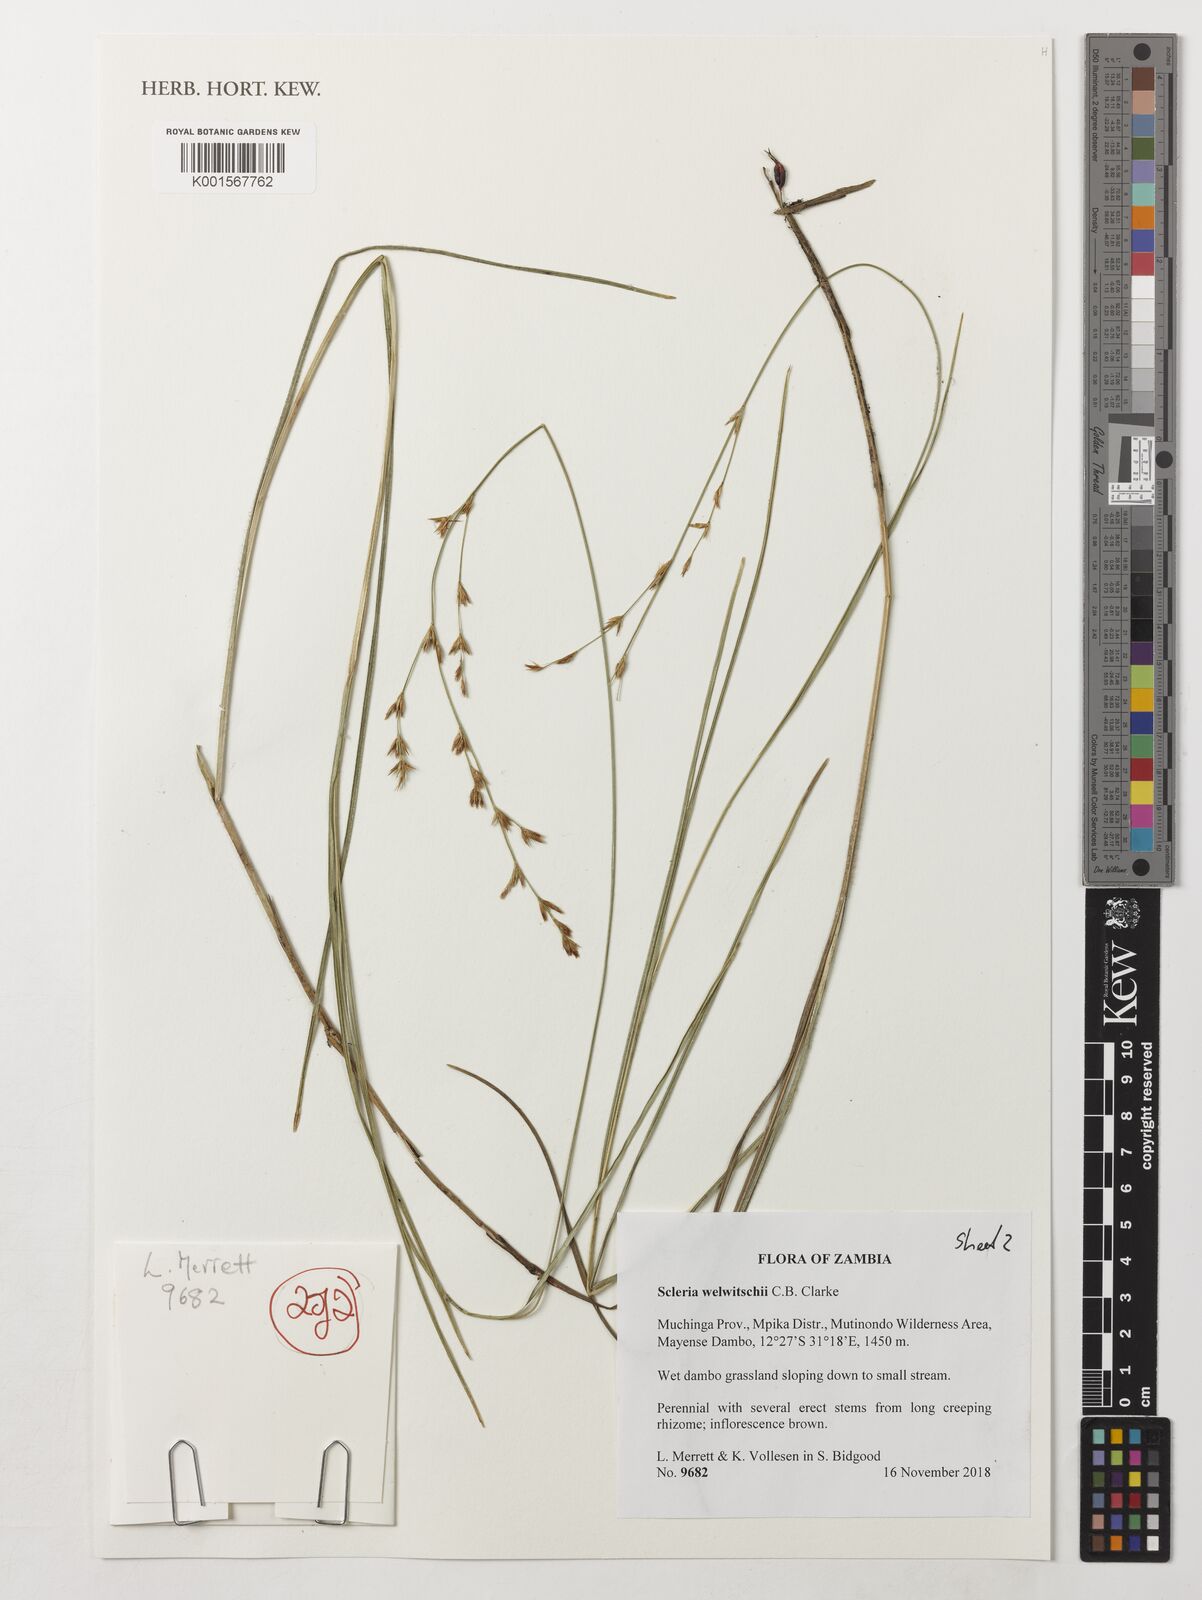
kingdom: Plantae
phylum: Tracheophyta
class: Liliopsida
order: Poales
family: Cyperaceae
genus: Scleria
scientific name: Scleria welwitschii
